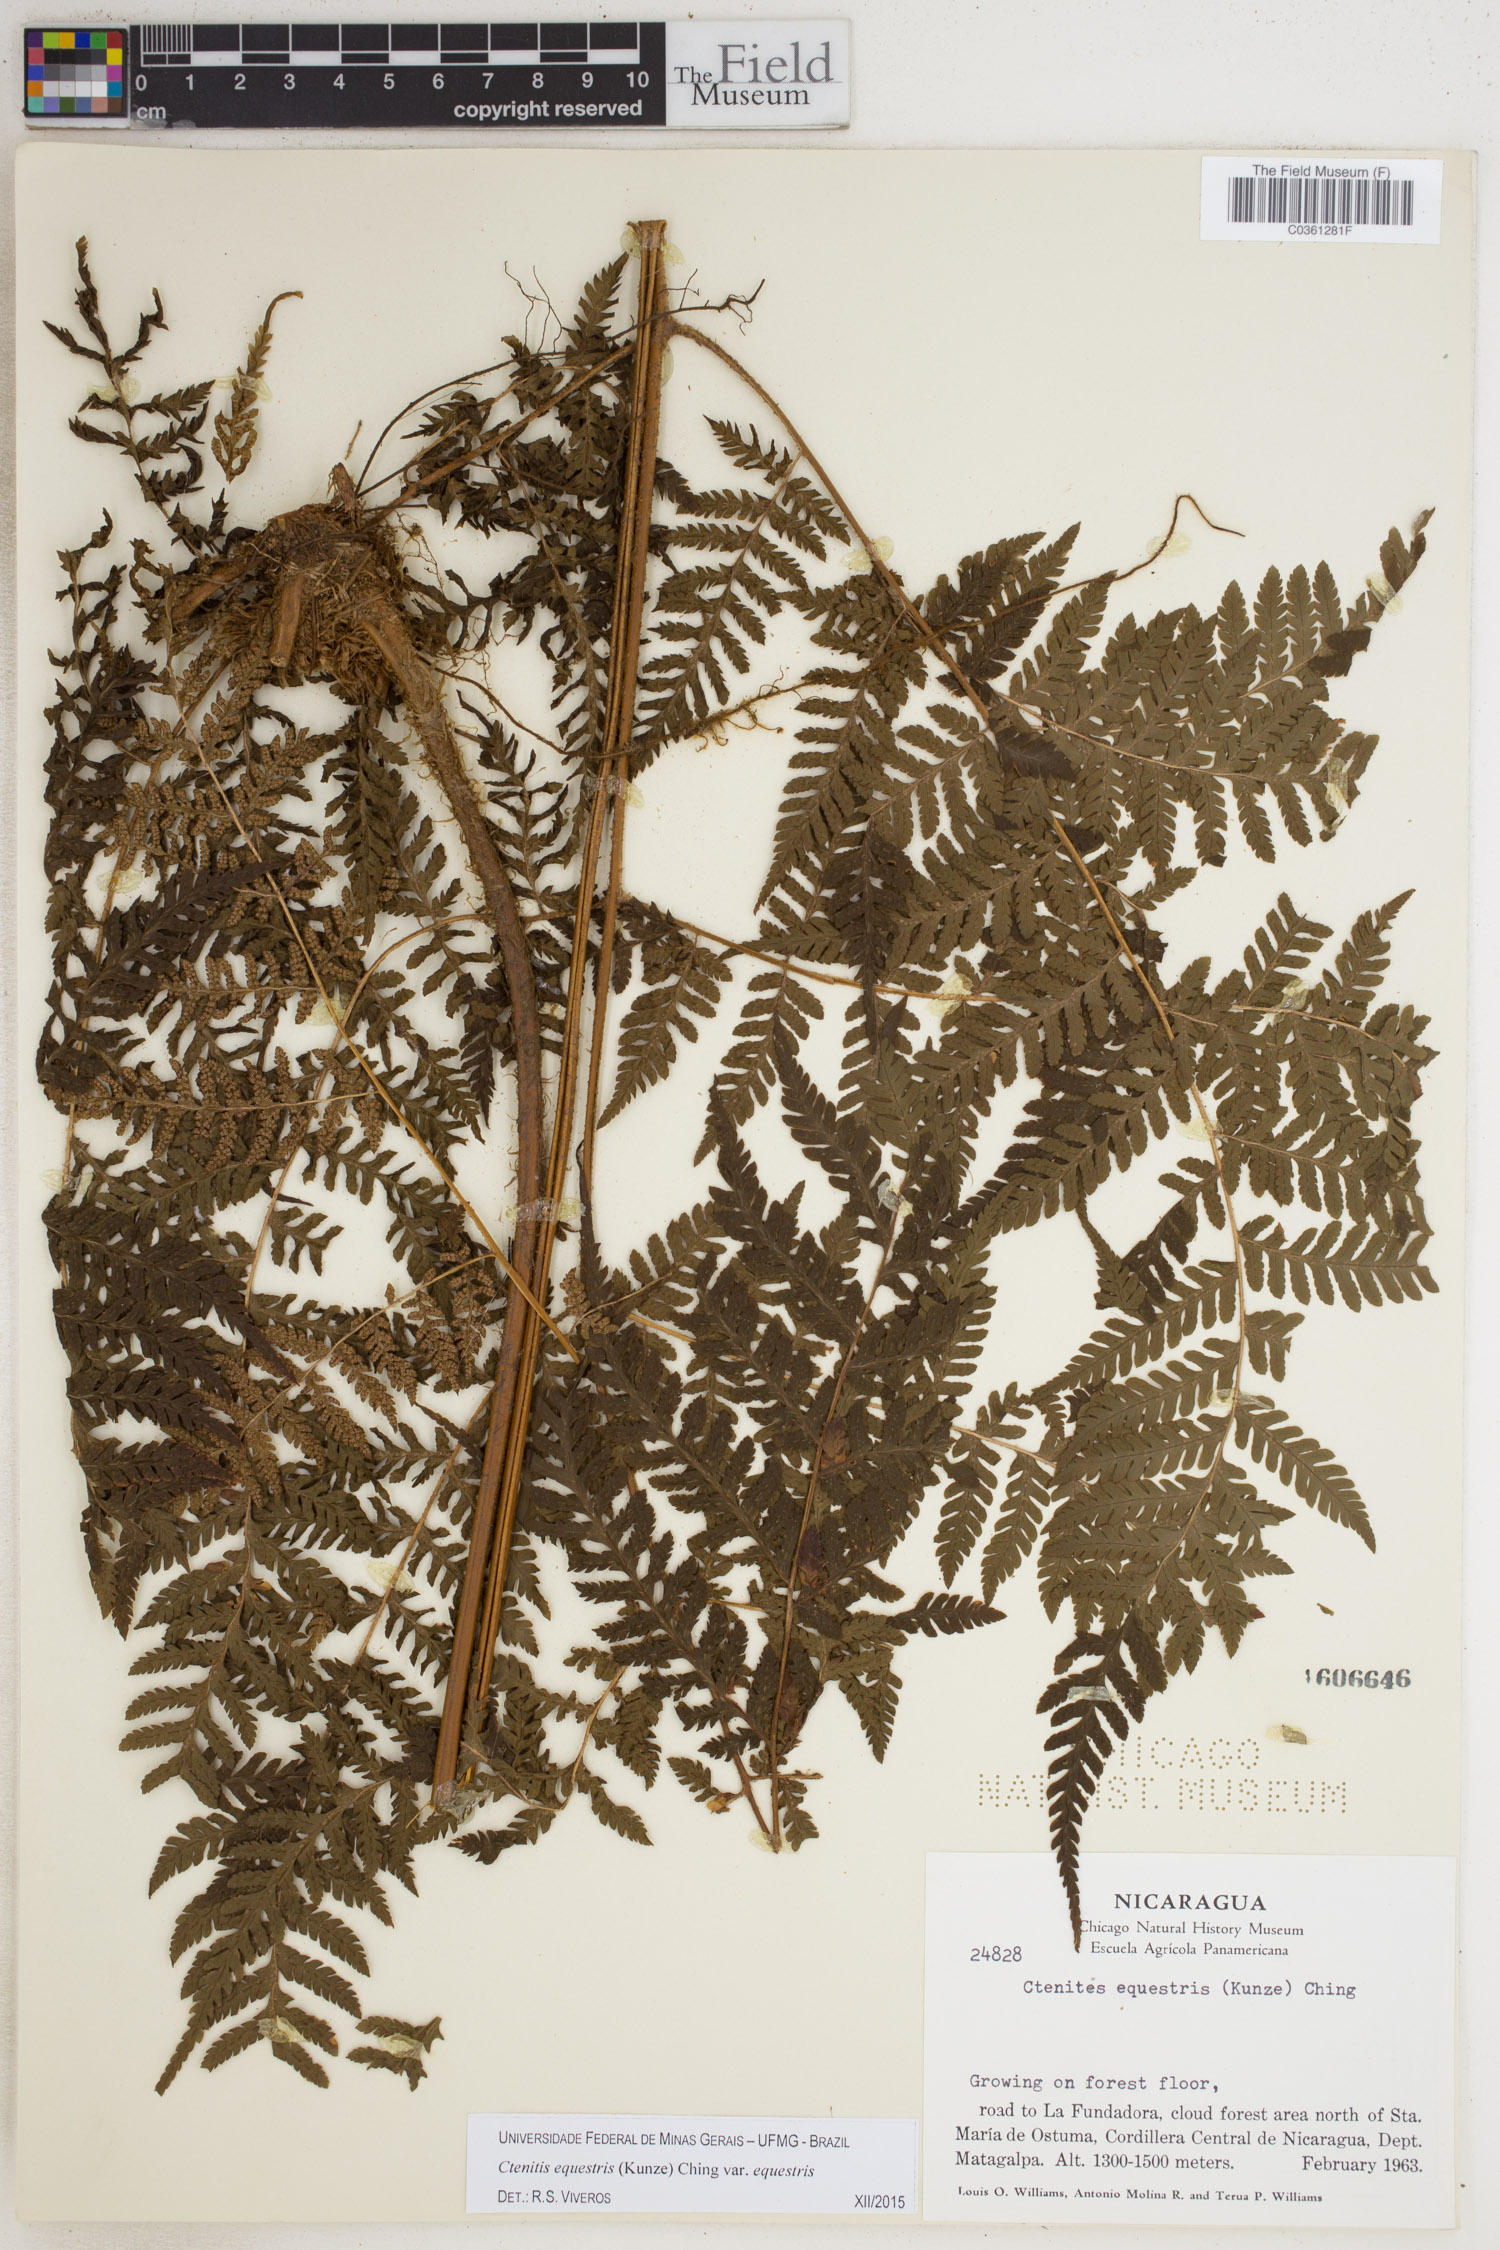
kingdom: Plantae
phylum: Tracheophyta
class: Polypodiopsida
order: Polypodiales
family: Dryopteridaceae
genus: Ctenitis
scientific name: Ctenitis equestris
